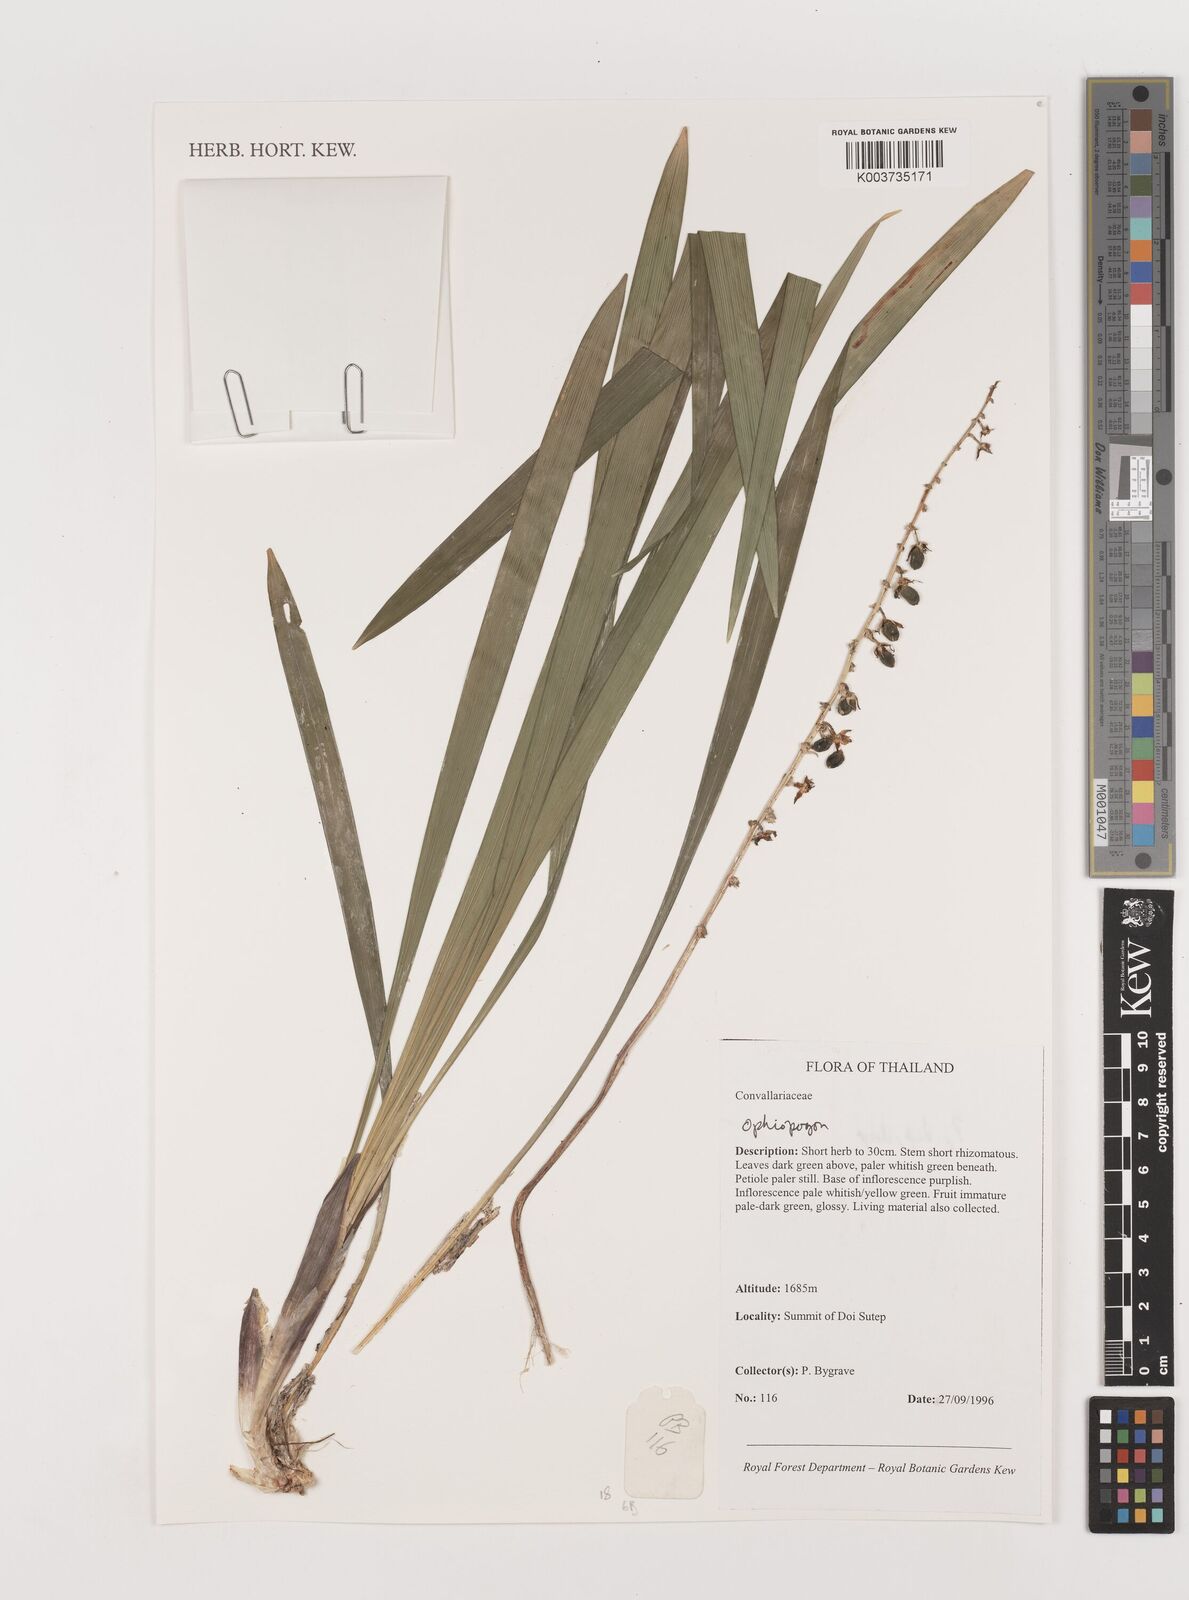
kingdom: Plantae
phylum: Tracheophyta
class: Liliopsida
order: Asparagales
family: Asparagaceae
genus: Ophiopogon
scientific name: Ophiopogon
